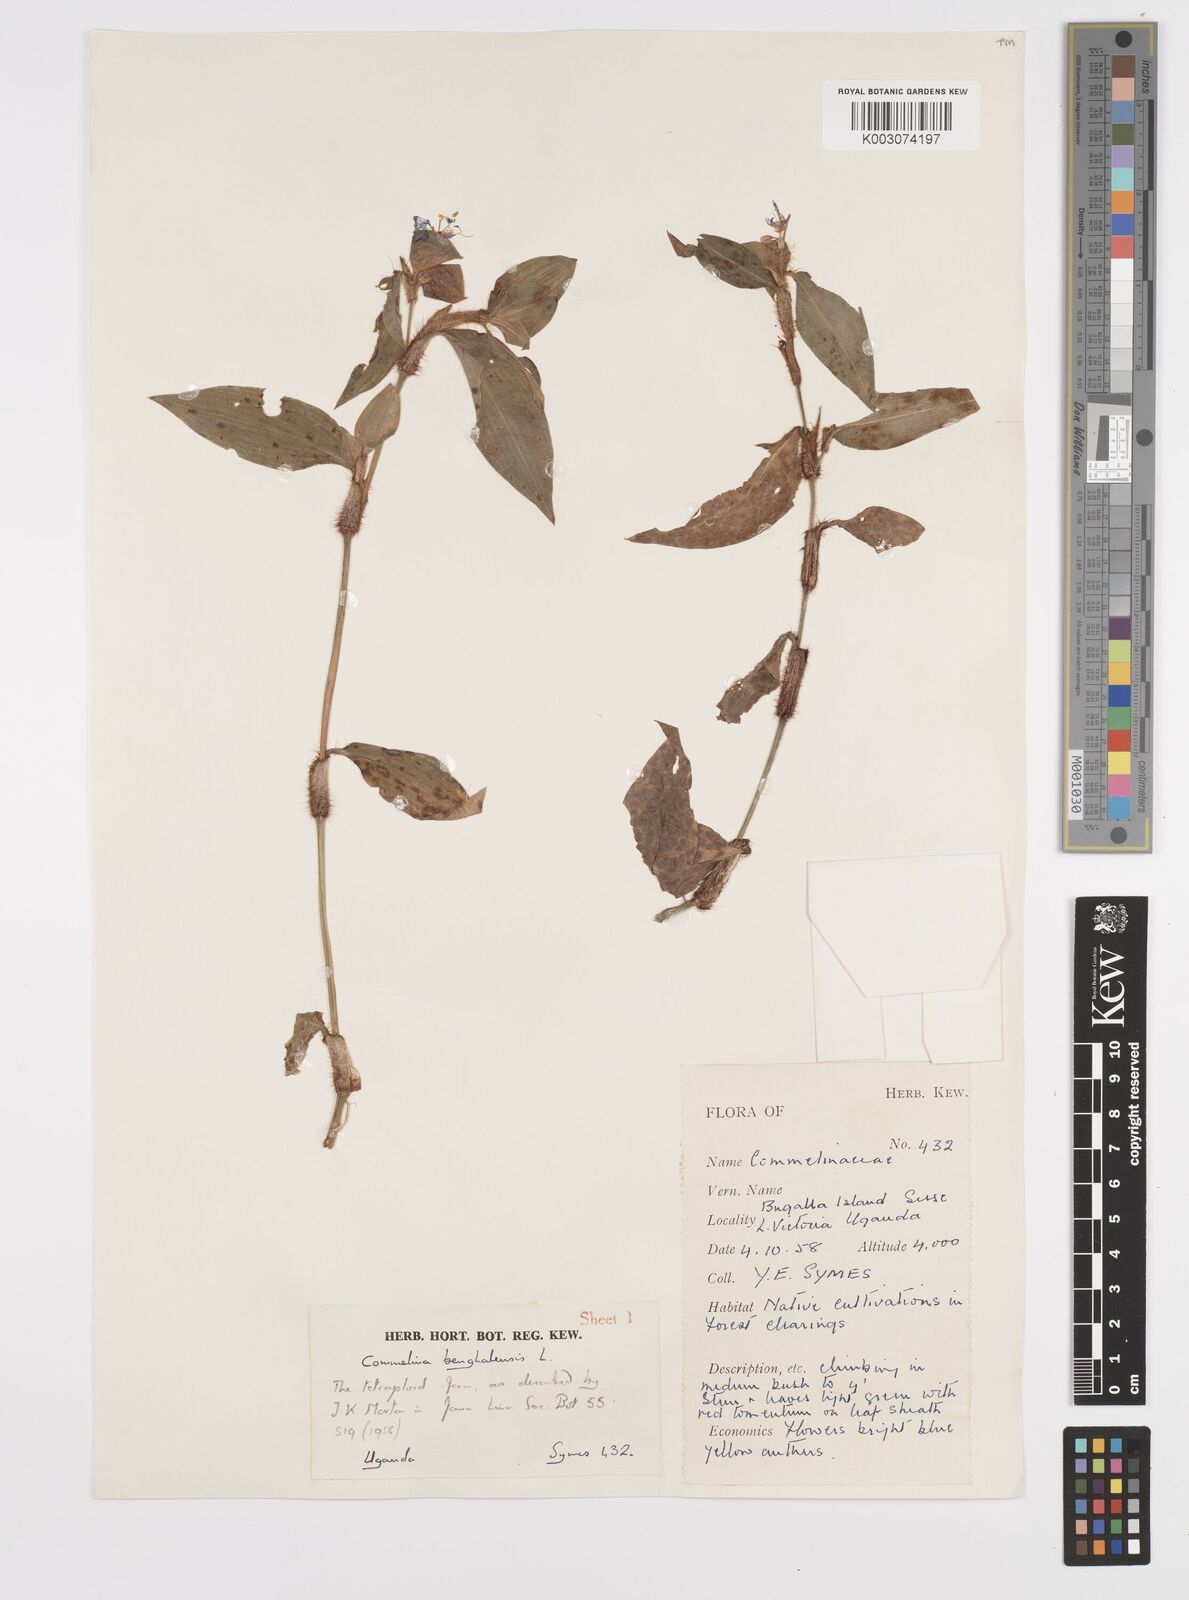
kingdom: Plantae
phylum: Tracheophyta
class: Liliopsida
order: Commelinales
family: Commelinaceae
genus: Commelina
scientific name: Commelina benghalensis
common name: Jio
